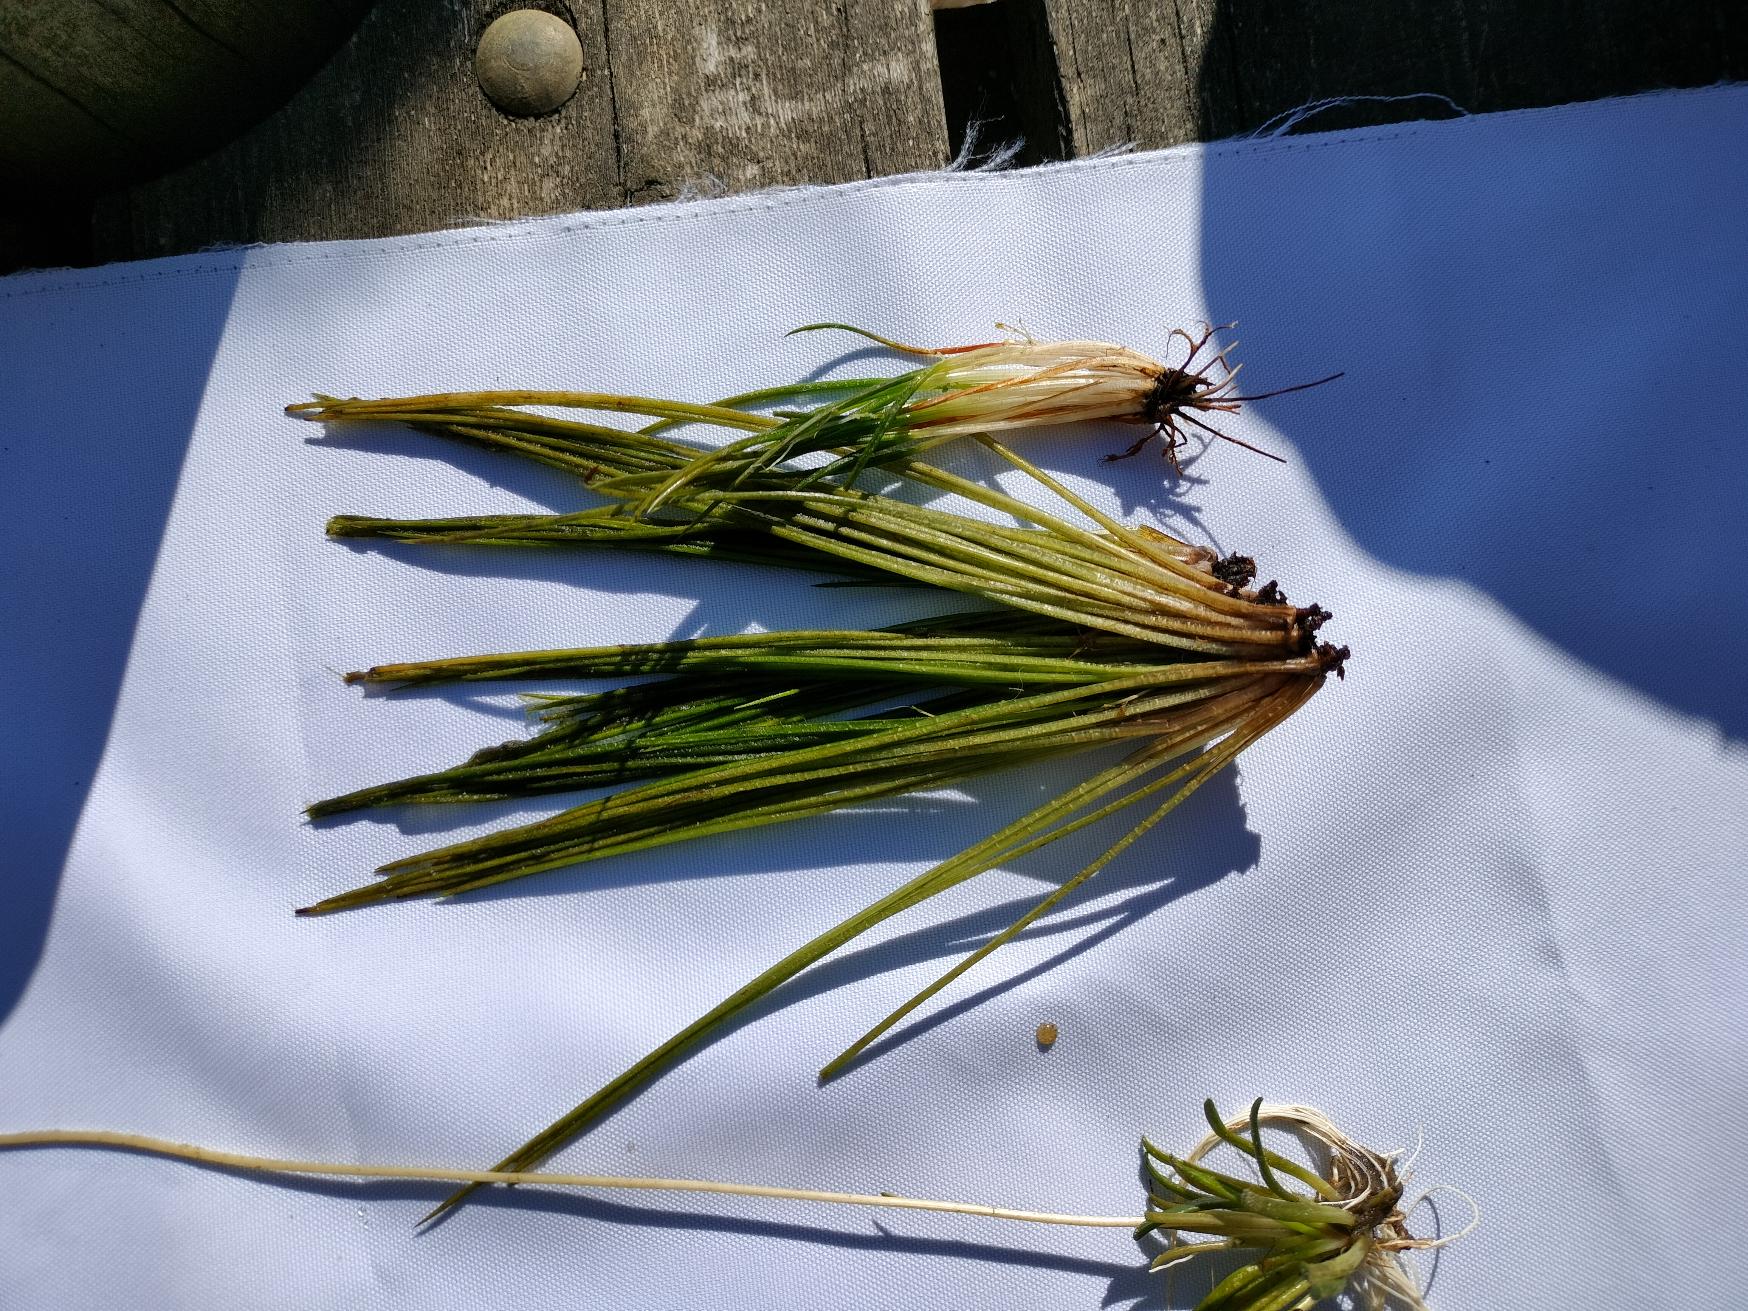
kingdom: Plantae
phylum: Tracheophyta
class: Lycopodiopsida
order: Isoetales
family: Isoetaceae
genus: Isoetes
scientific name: Isoetes lacustris
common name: Sortgrøn brasenføde
